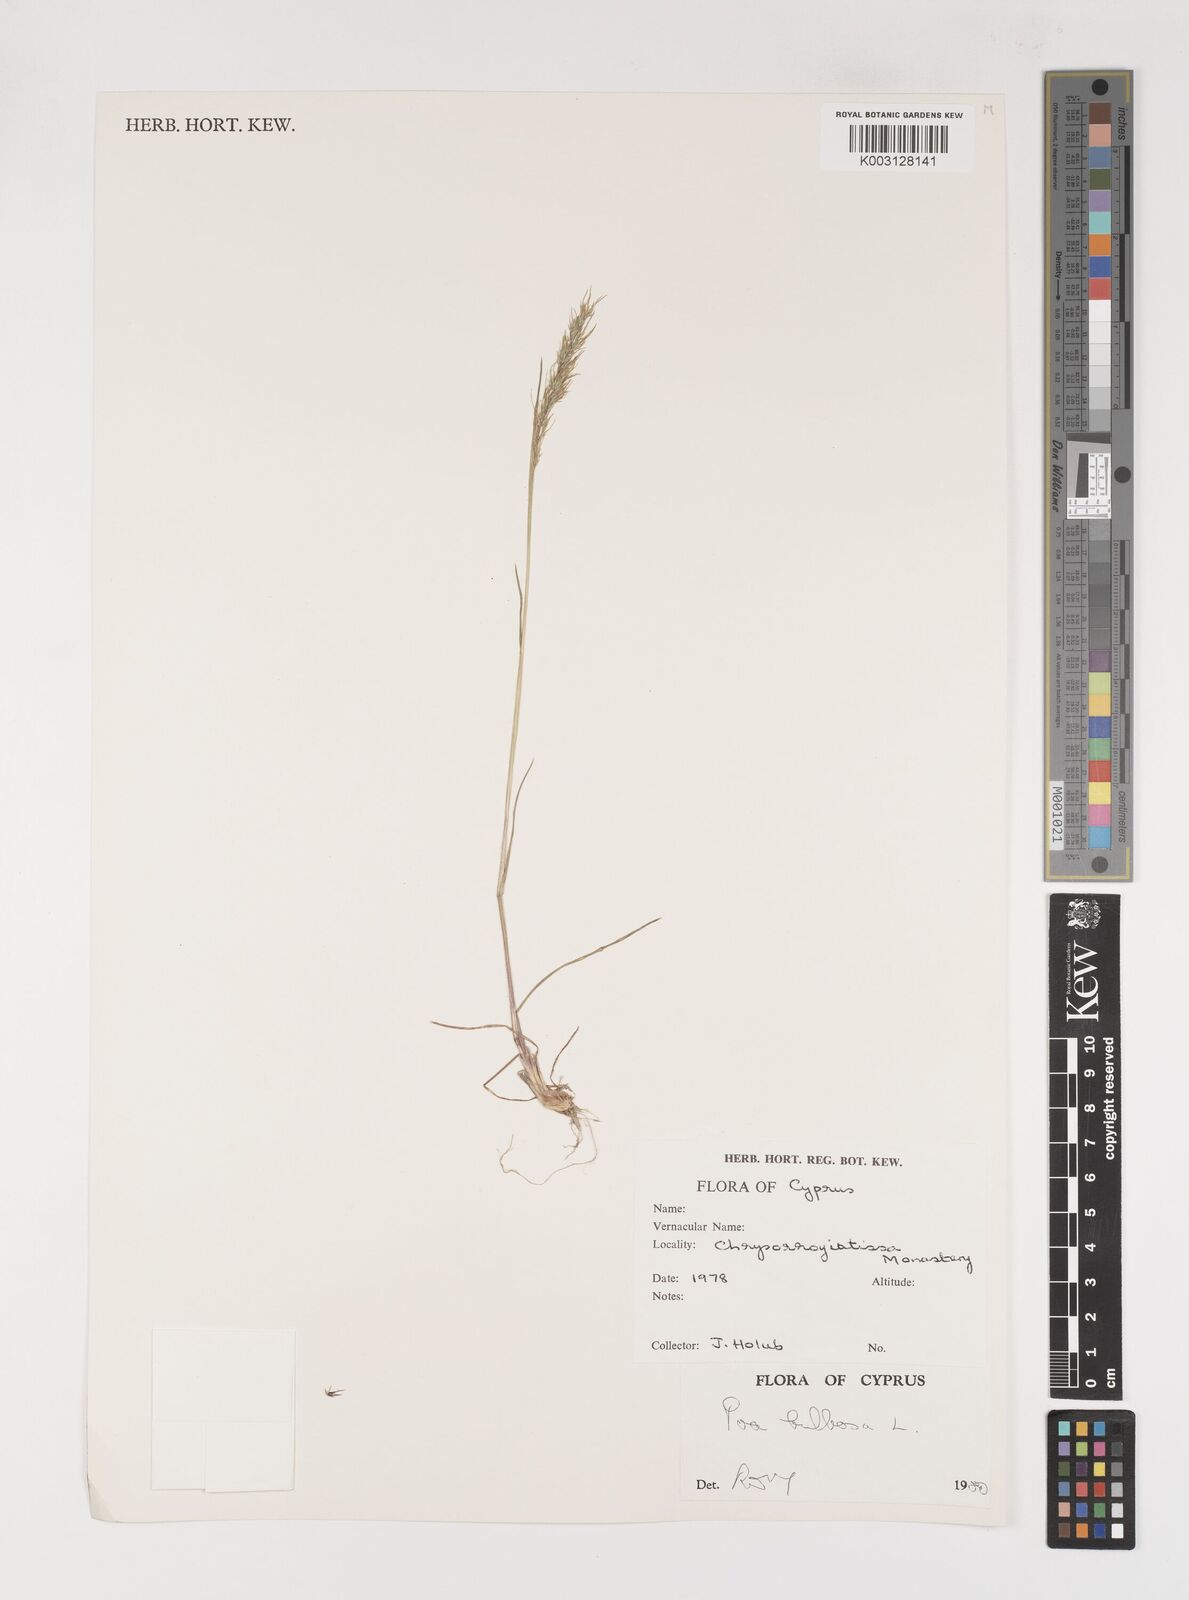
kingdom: Plantae
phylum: Tracheophyta
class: Liliopsida
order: Poales
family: Poaceae
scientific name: Poaceae
